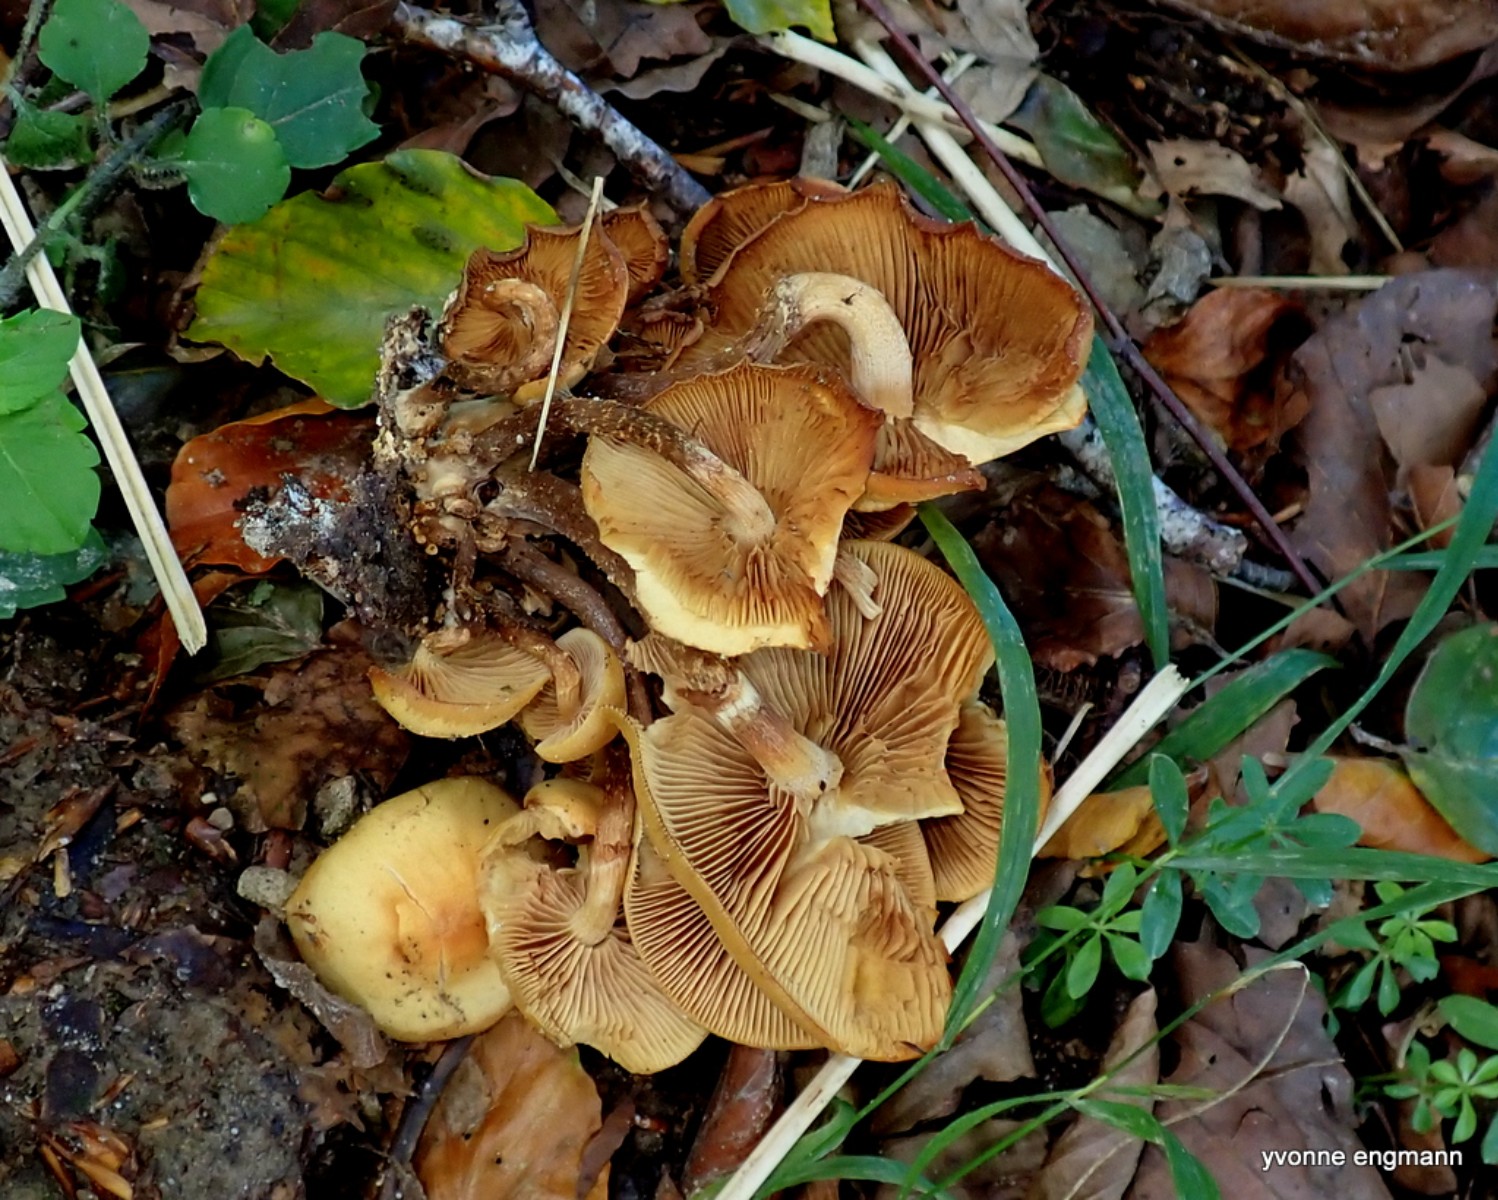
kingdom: Fungi
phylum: Basidiomycota
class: Agaricomycetes
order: Agaricales
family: Strophariaceae
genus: Kuehneromyces
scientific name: Kuehneromyces mutabilis
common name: foranderlig skælhat
